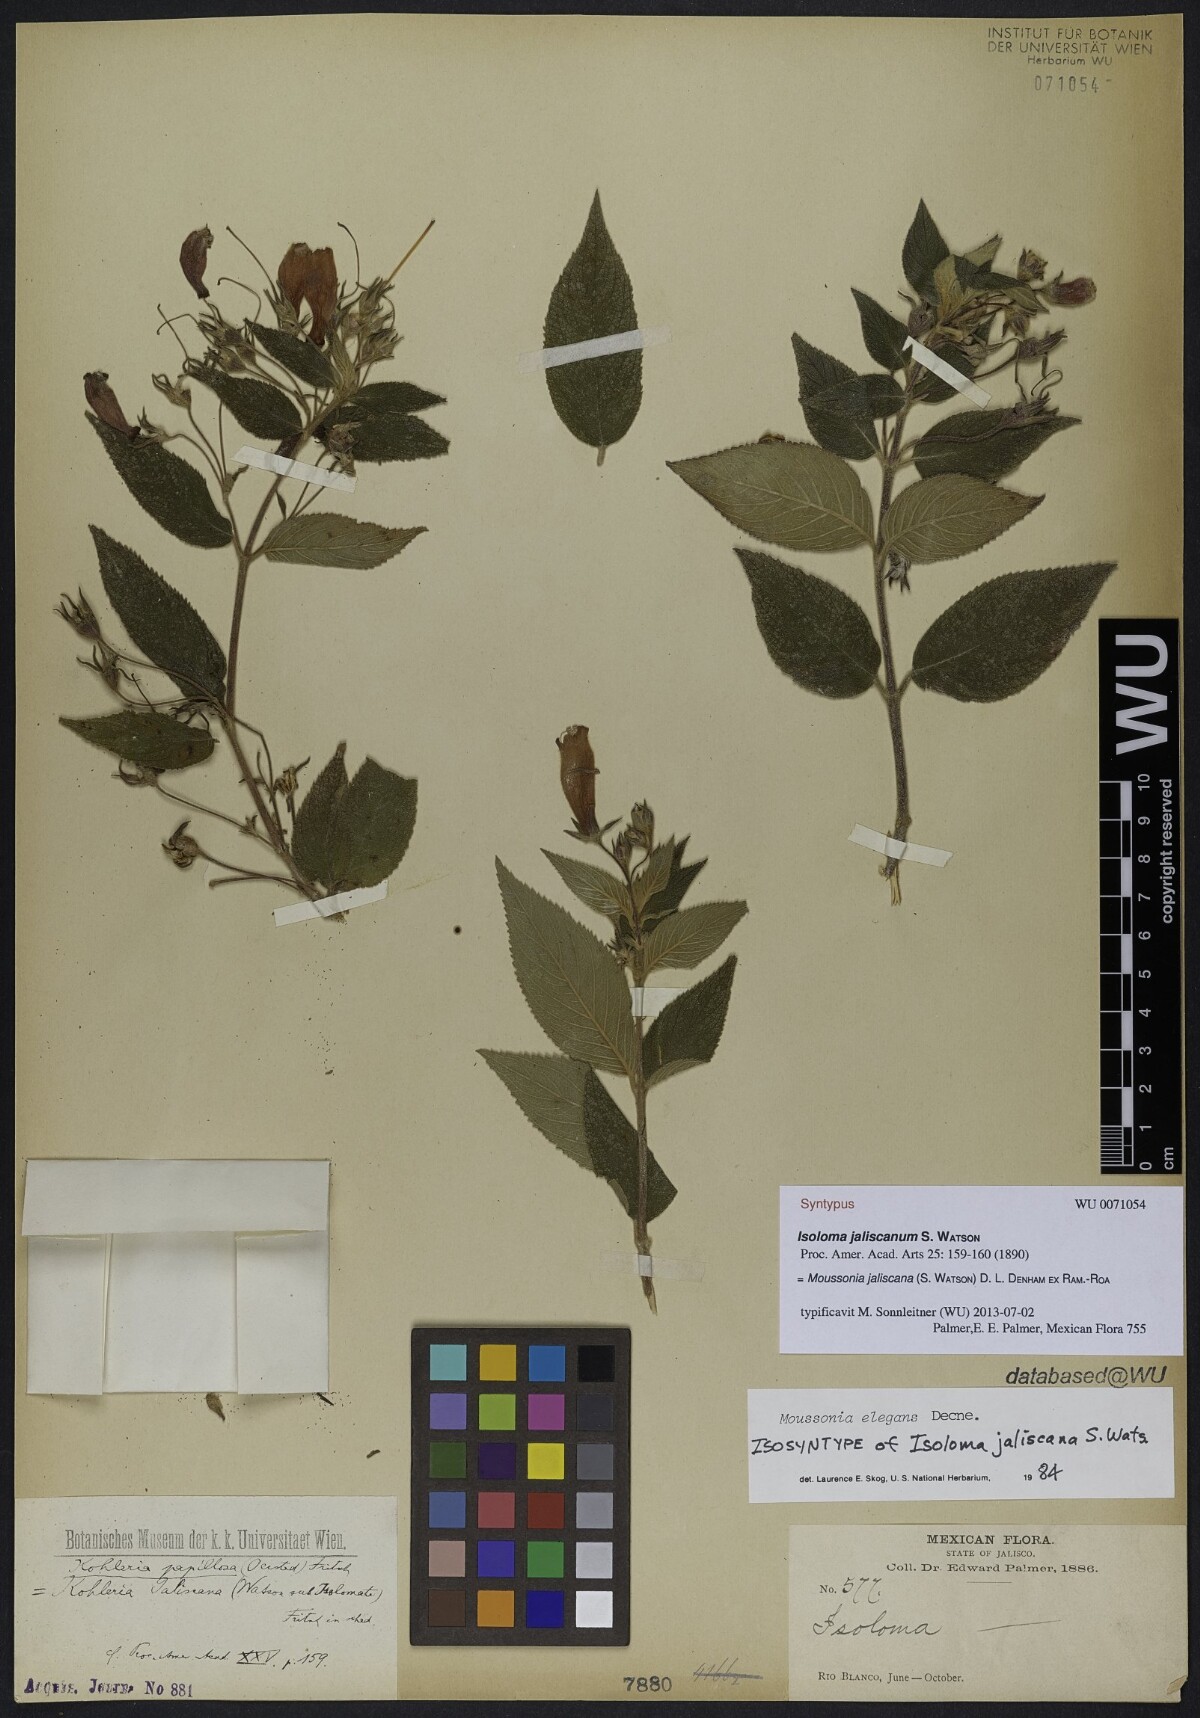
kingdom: Plantae
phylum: Tracheophyta
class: Magnoliopsida
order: Lamiales
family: Gesneriaceae
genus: Moussonia
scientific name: Moussonia jaliscana
